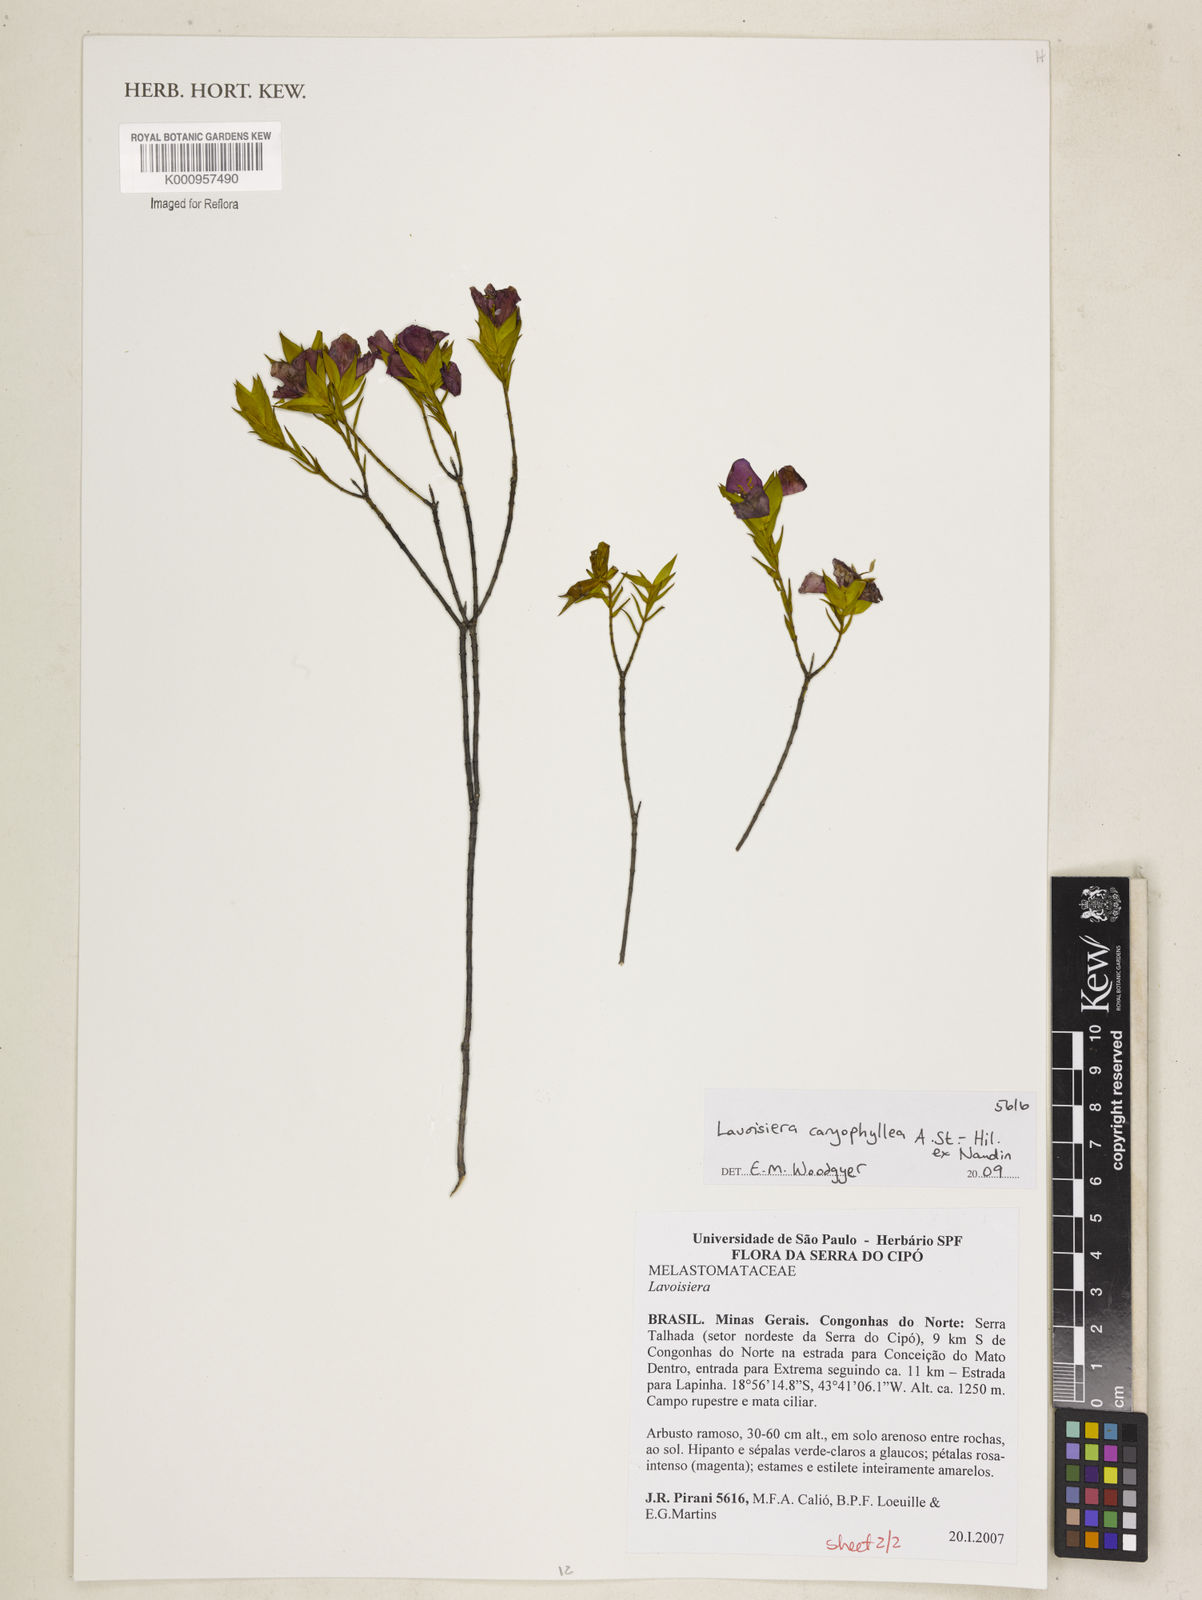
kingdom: Plantae
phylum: Tracheophyta
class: Magnoliopsida
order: Myrtales
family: Melastomataceae
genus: Microlicia
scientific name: Microlicia caryophyllea
